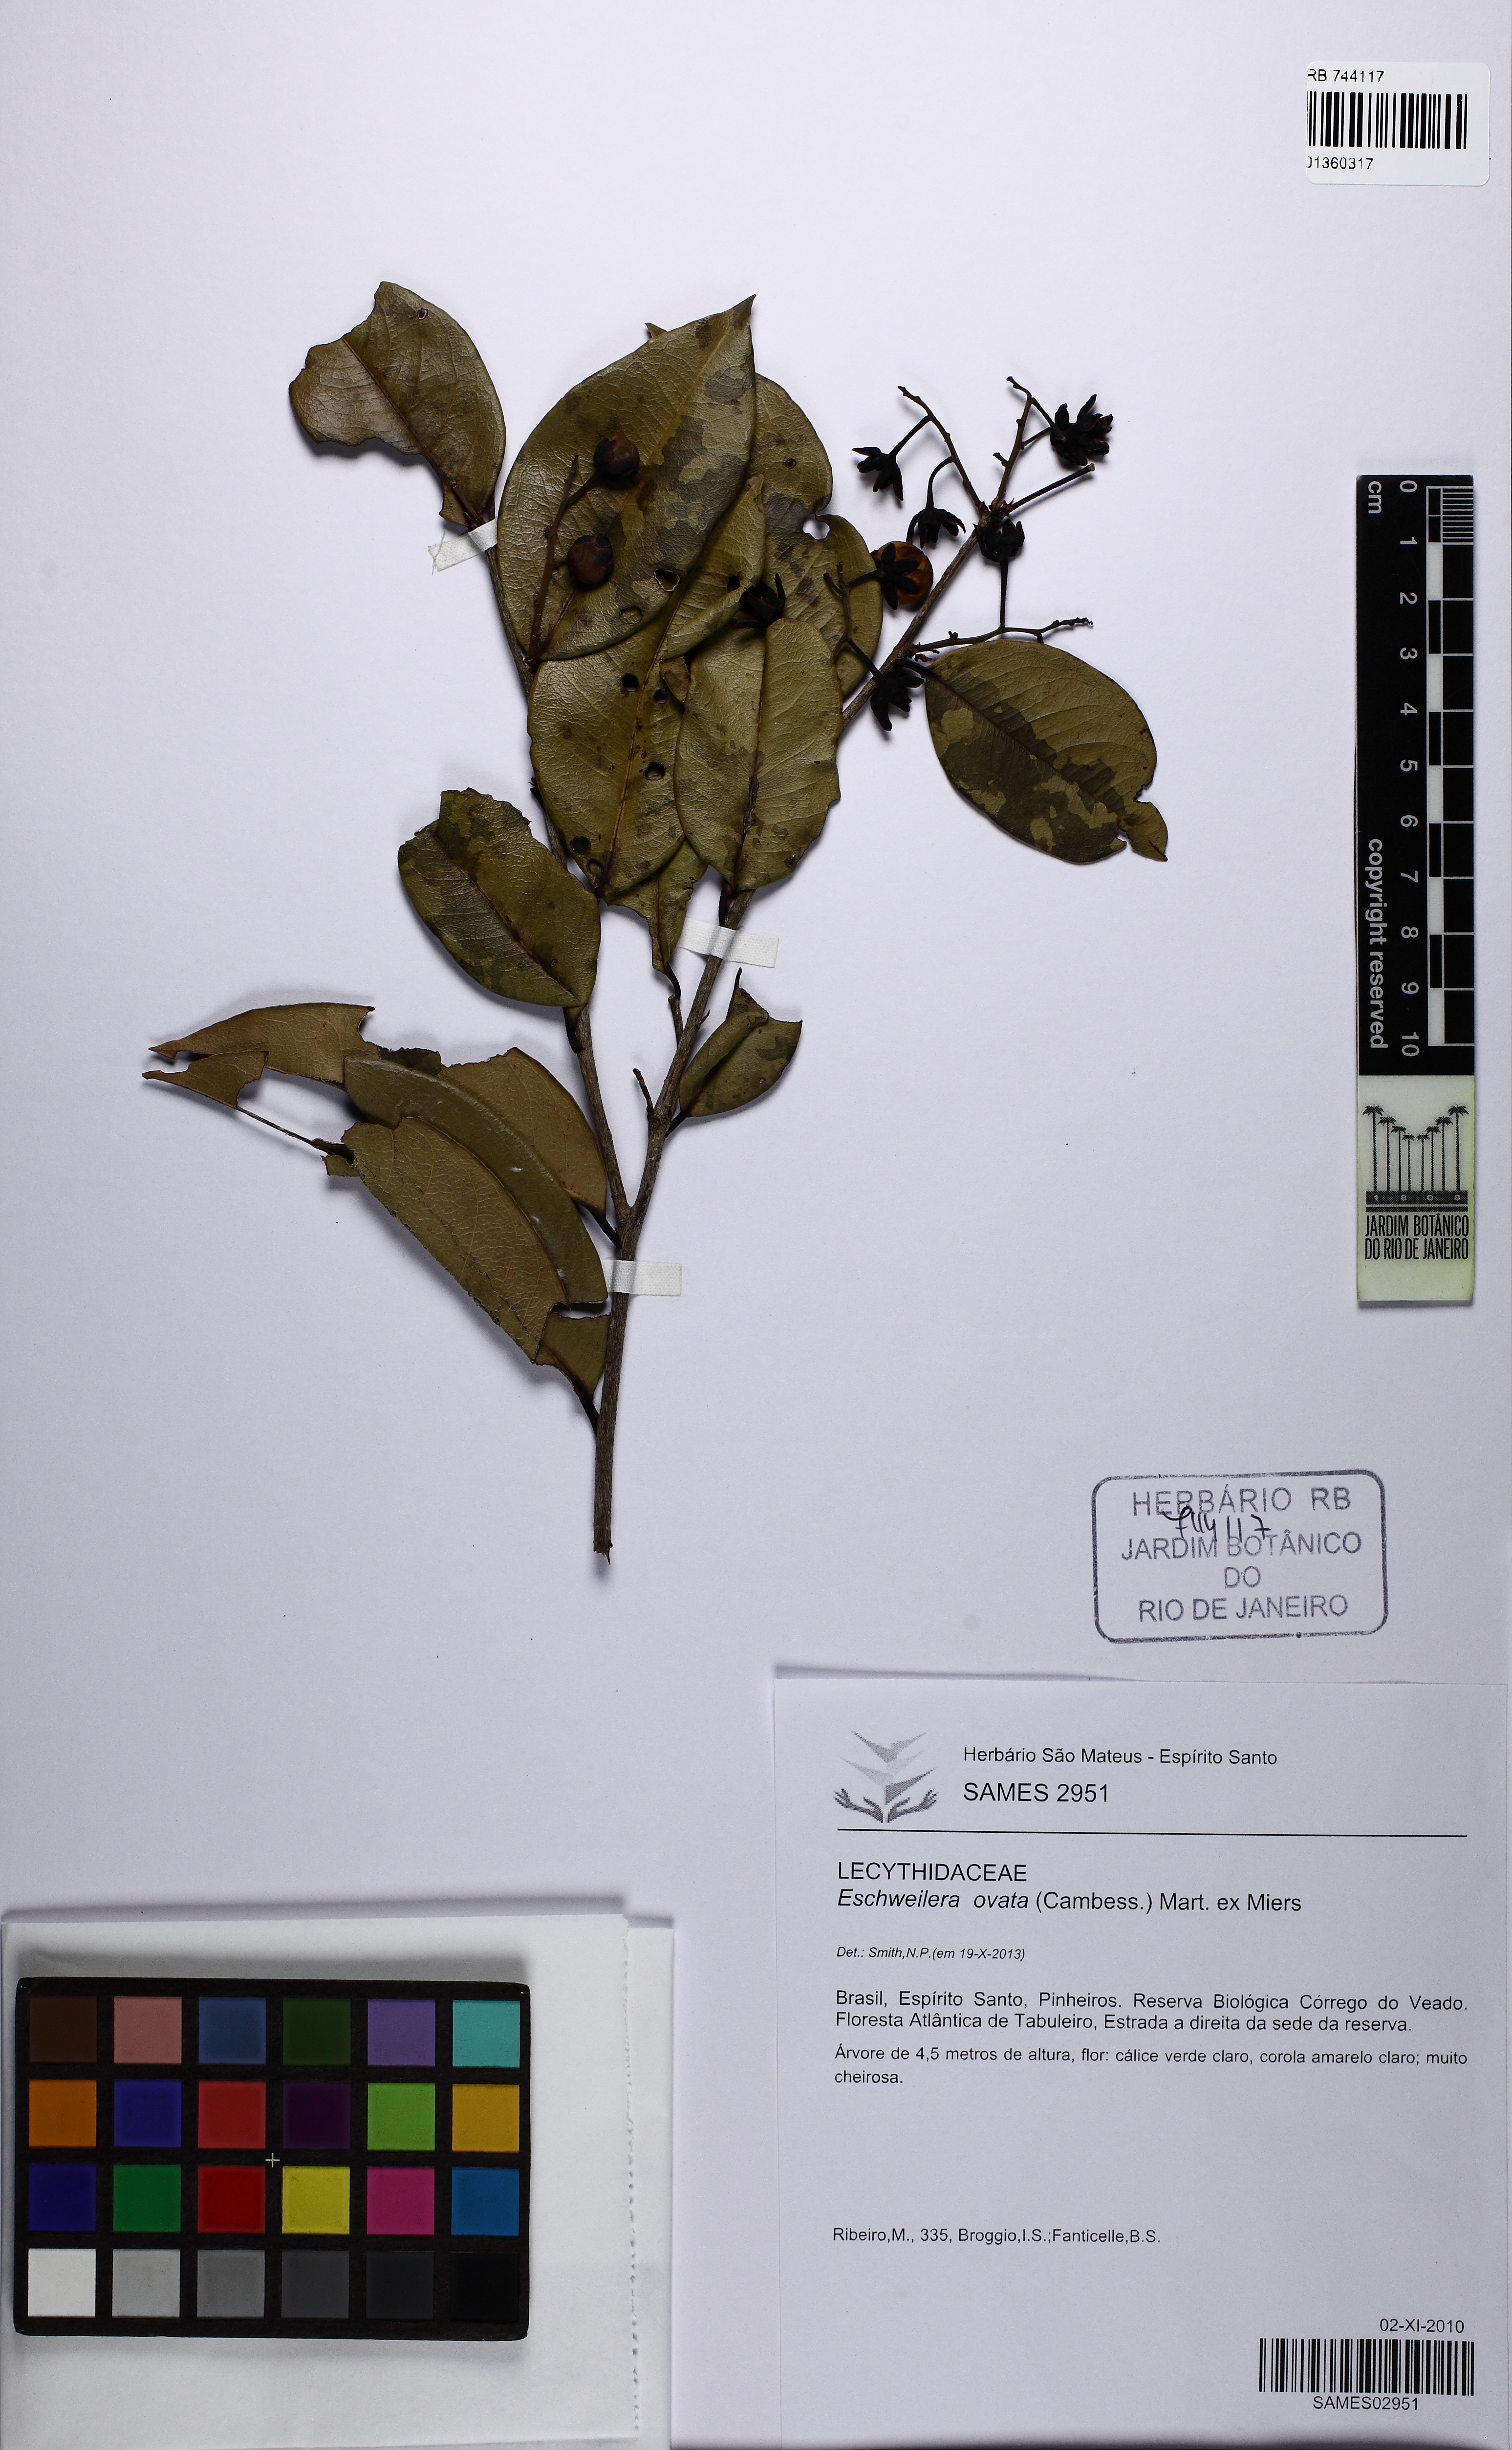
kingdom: Plantae
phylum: Tracheophyta
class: Magnoliopsida
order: Ericales
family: Lecythidaceae
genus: Eschweilera
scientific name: Eschweilera ovata
